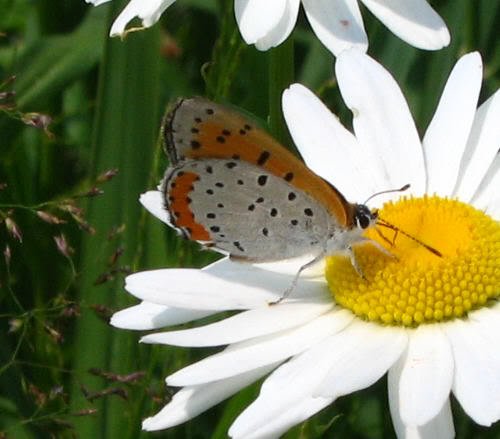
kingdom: Animalia
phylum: Arthropoda
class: Insecta
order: Lepidoptera
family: Sesiidae
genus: Sesia
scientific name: Sesia Lycaena hyllus
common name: Bronze Copper
